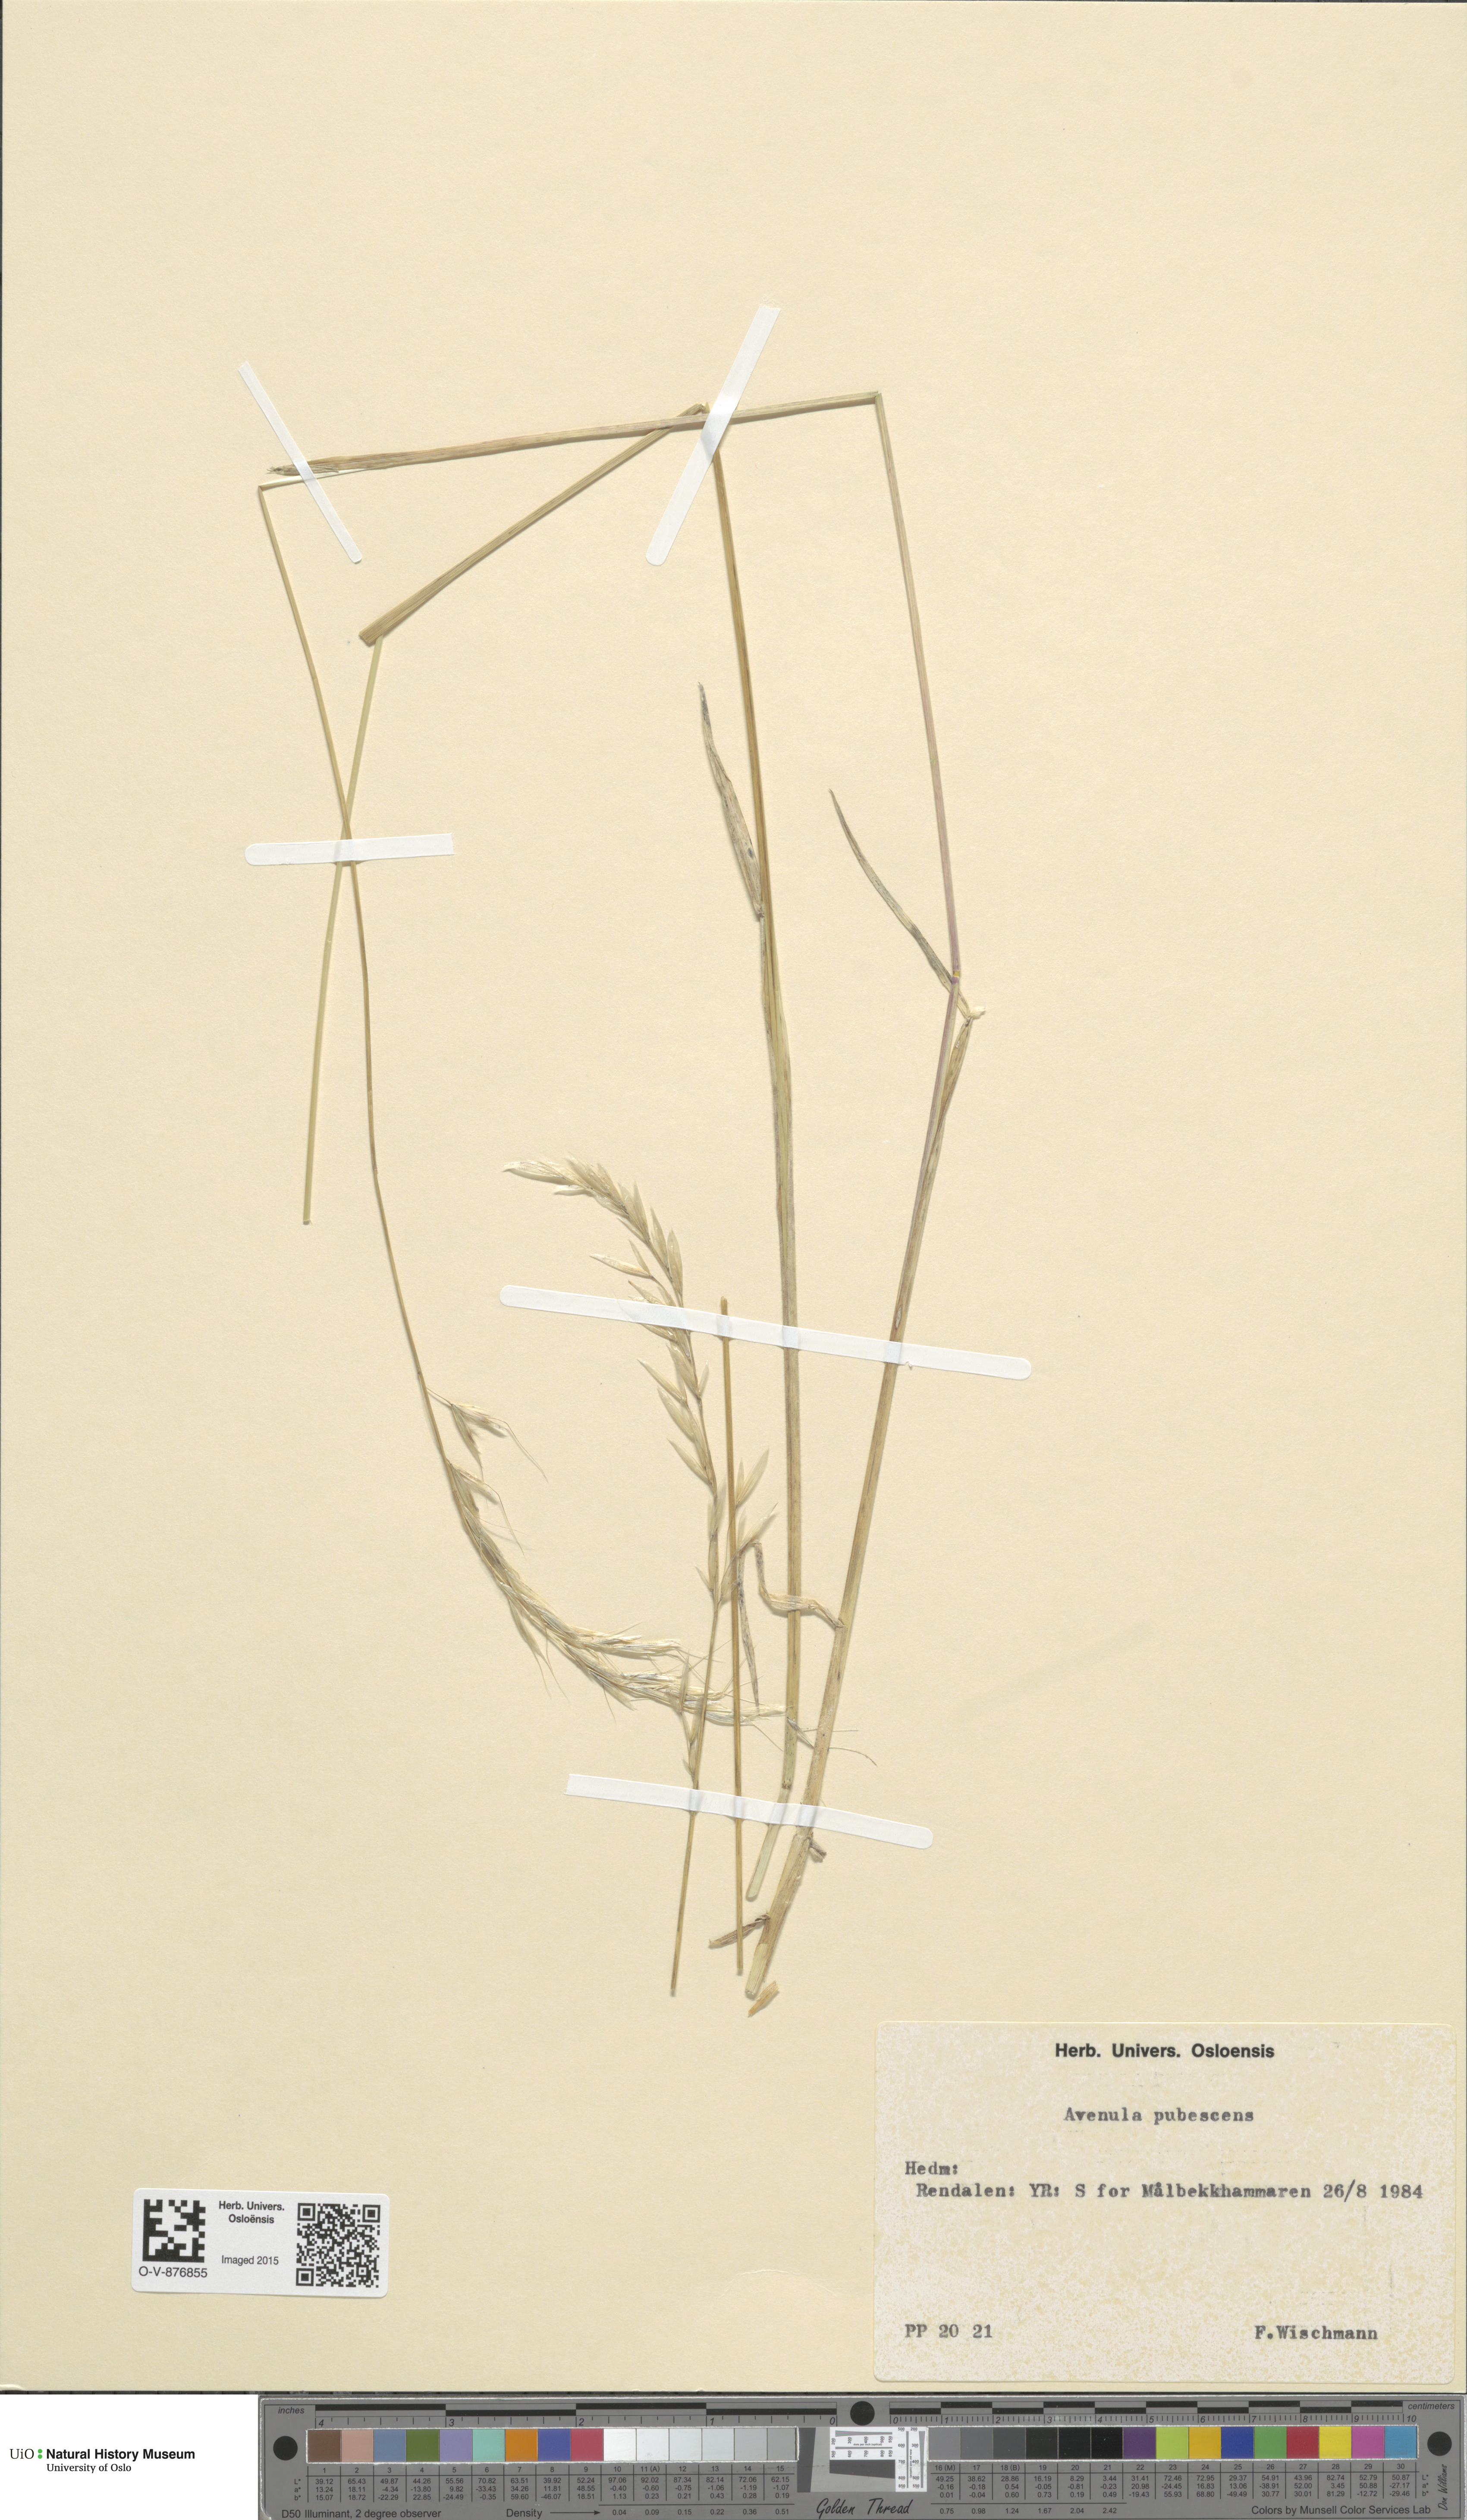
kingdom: Plantae
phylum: Tracheophyta
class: Liliopsida
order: Poales
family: Poaceae
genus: Avenula
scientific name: Avenula pubescens
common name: Downy alpine oatgrass
